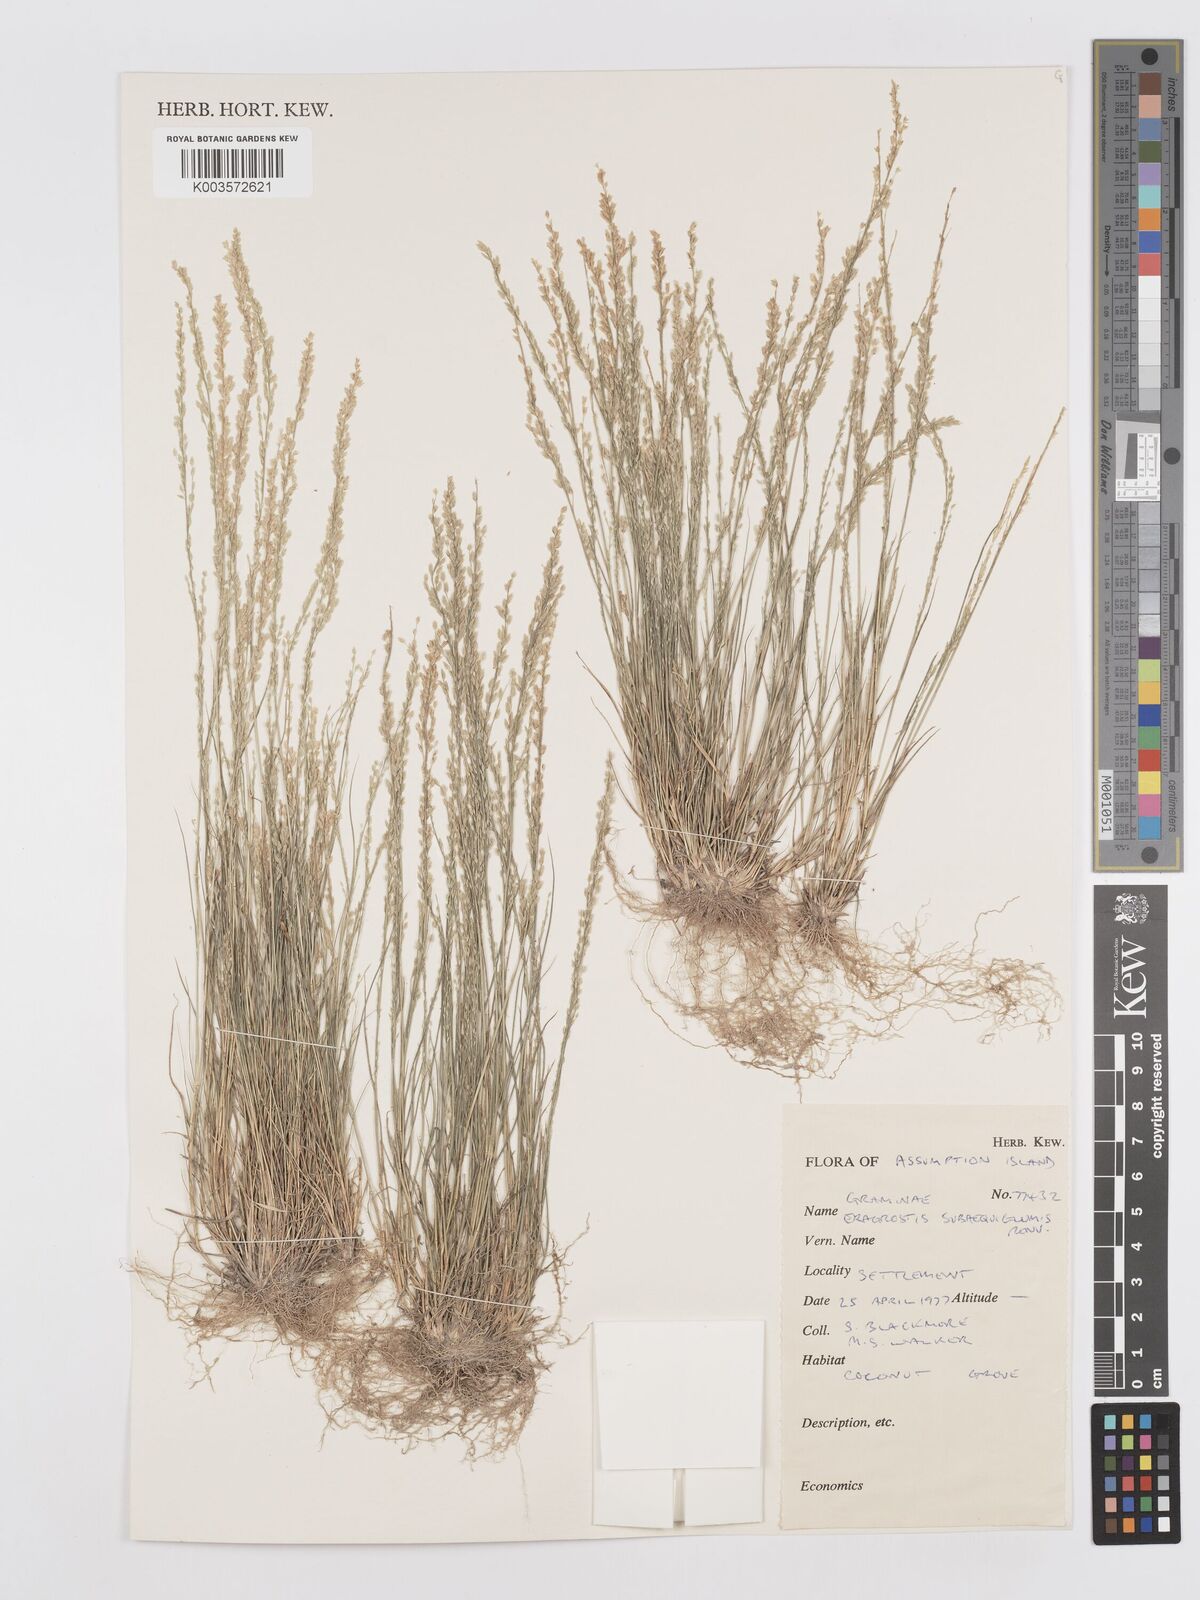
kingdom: Plantae
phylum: Tracheophyta
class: Liliopsida
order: Poales
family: Poaceae
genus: Eragrostis
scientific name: Eragrostis subaequiglumis
